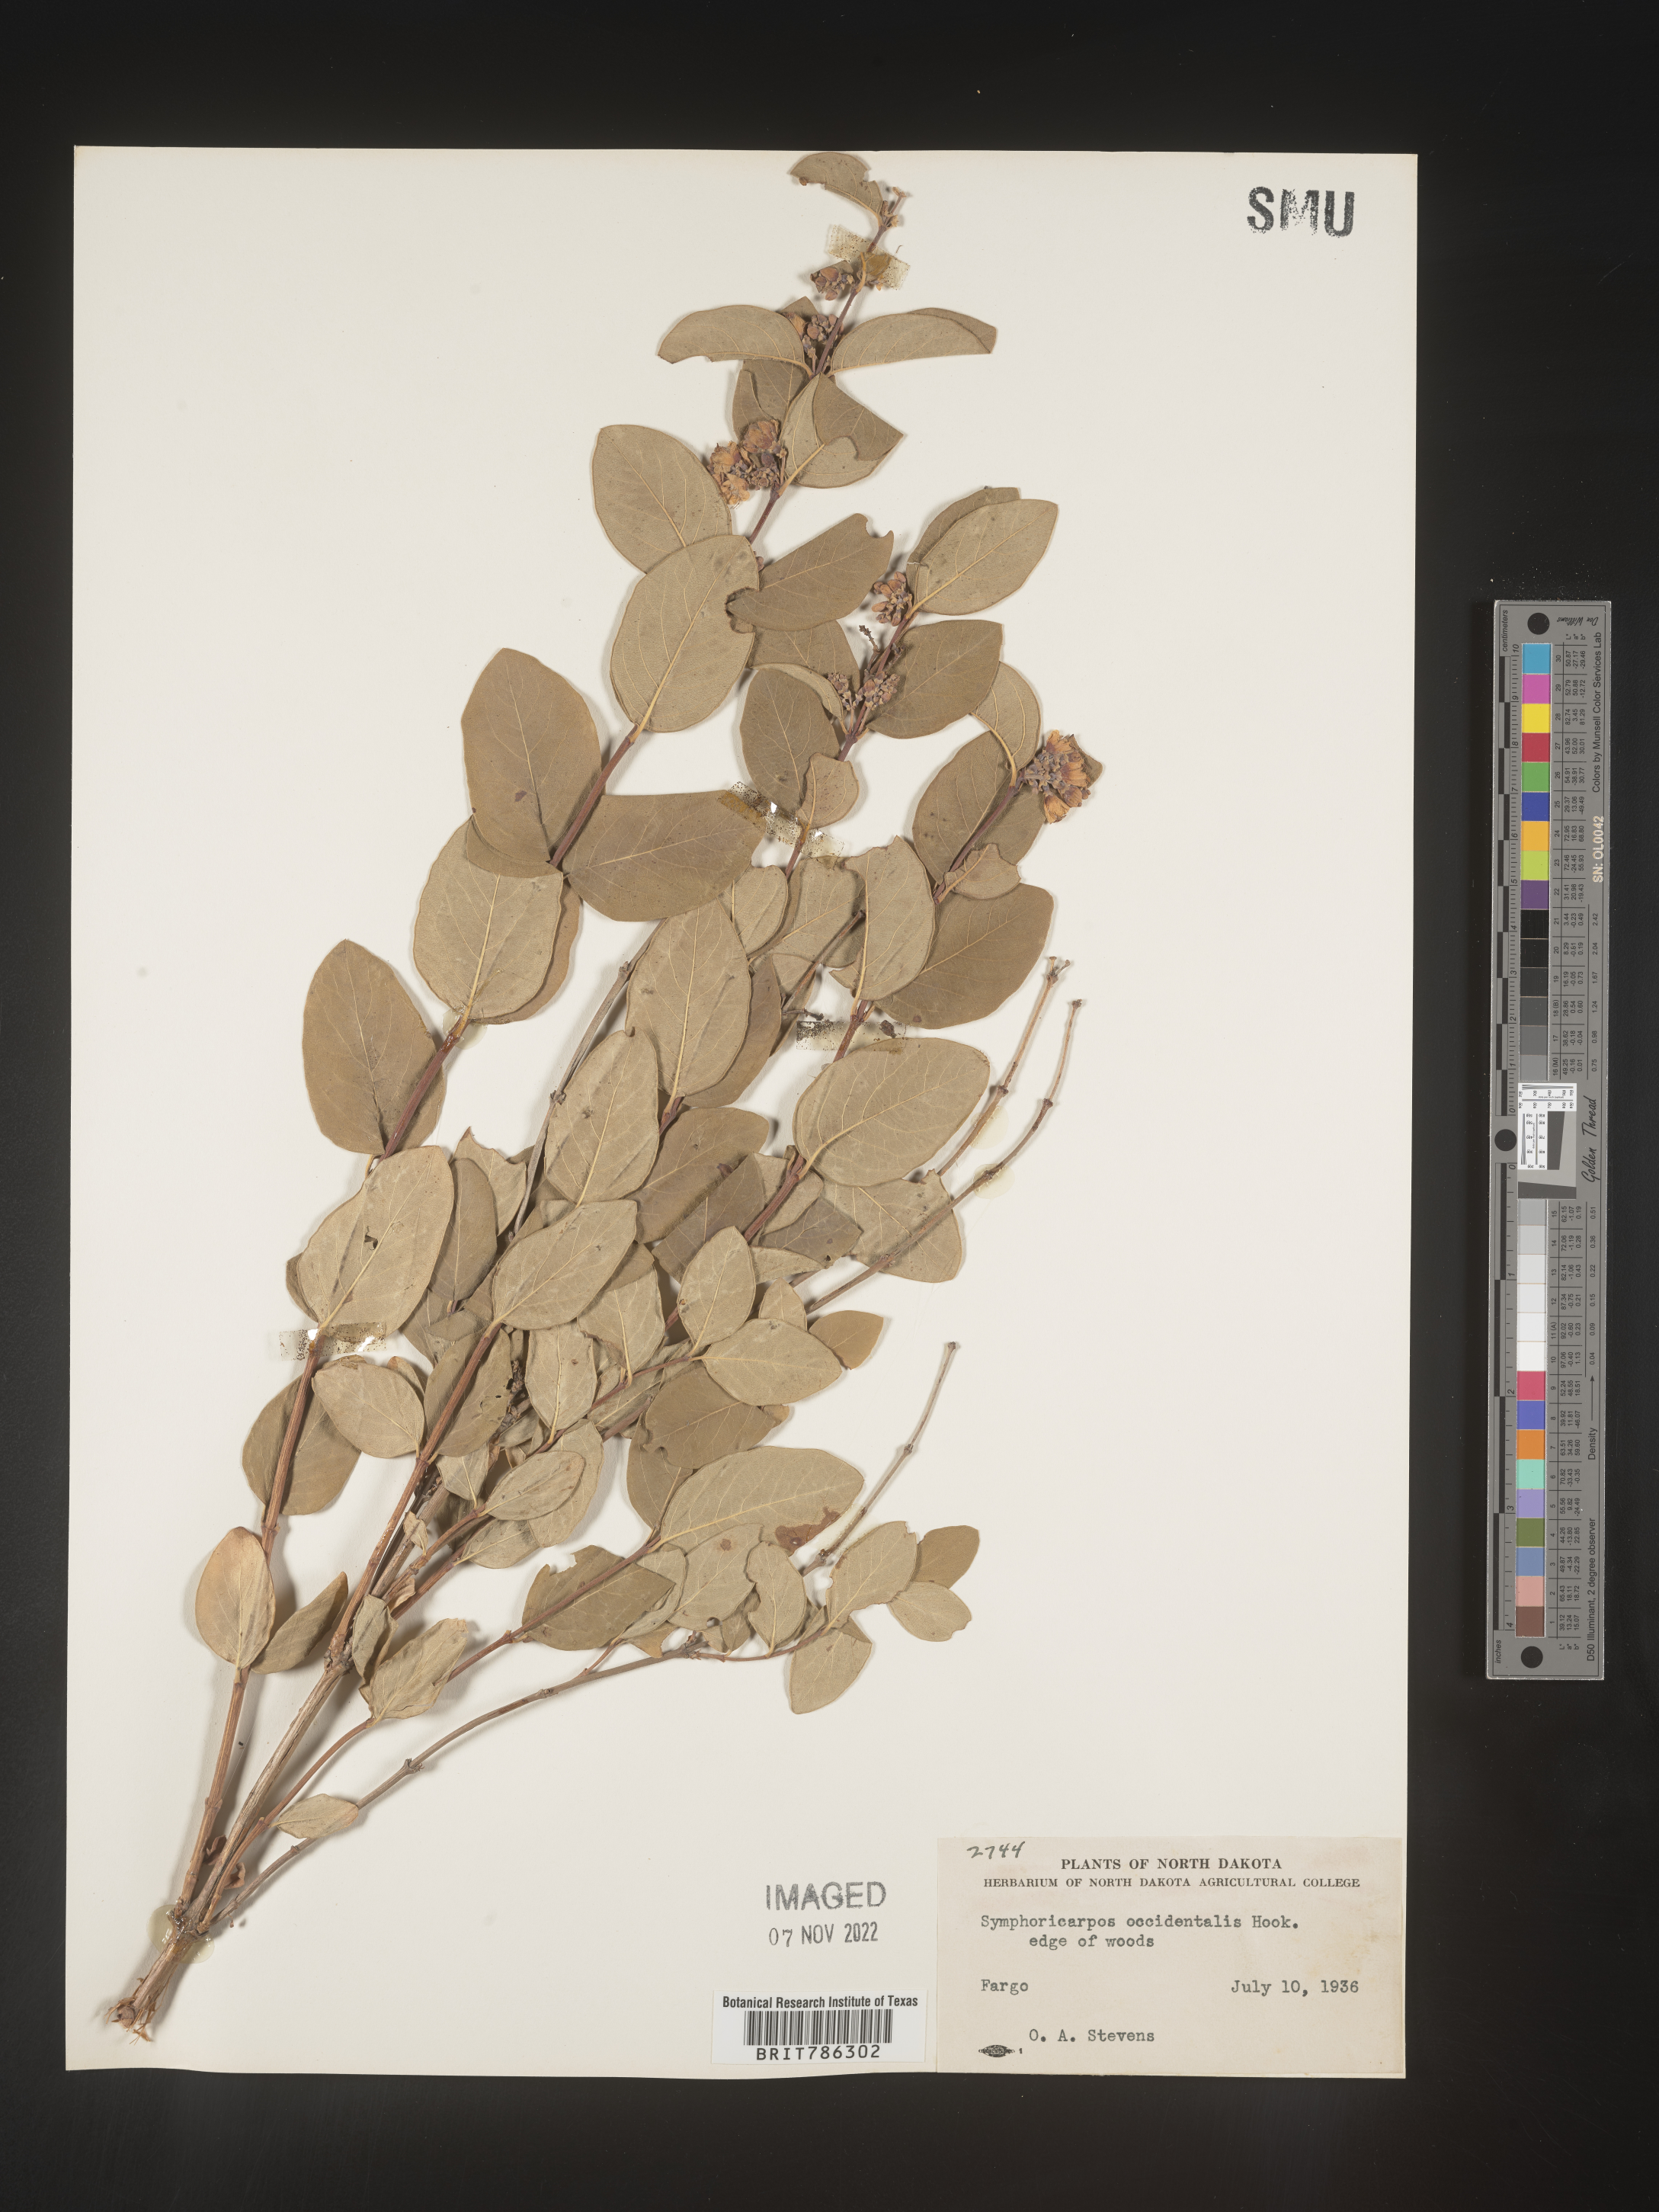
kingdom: Plantae
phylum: Tracheophyta
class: Magnoliopsida
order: Dipsacales
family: Caprifoliaceae
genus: Symphoricarpos
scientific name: Symphoricarpos occidentalis
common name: Wolfberry
